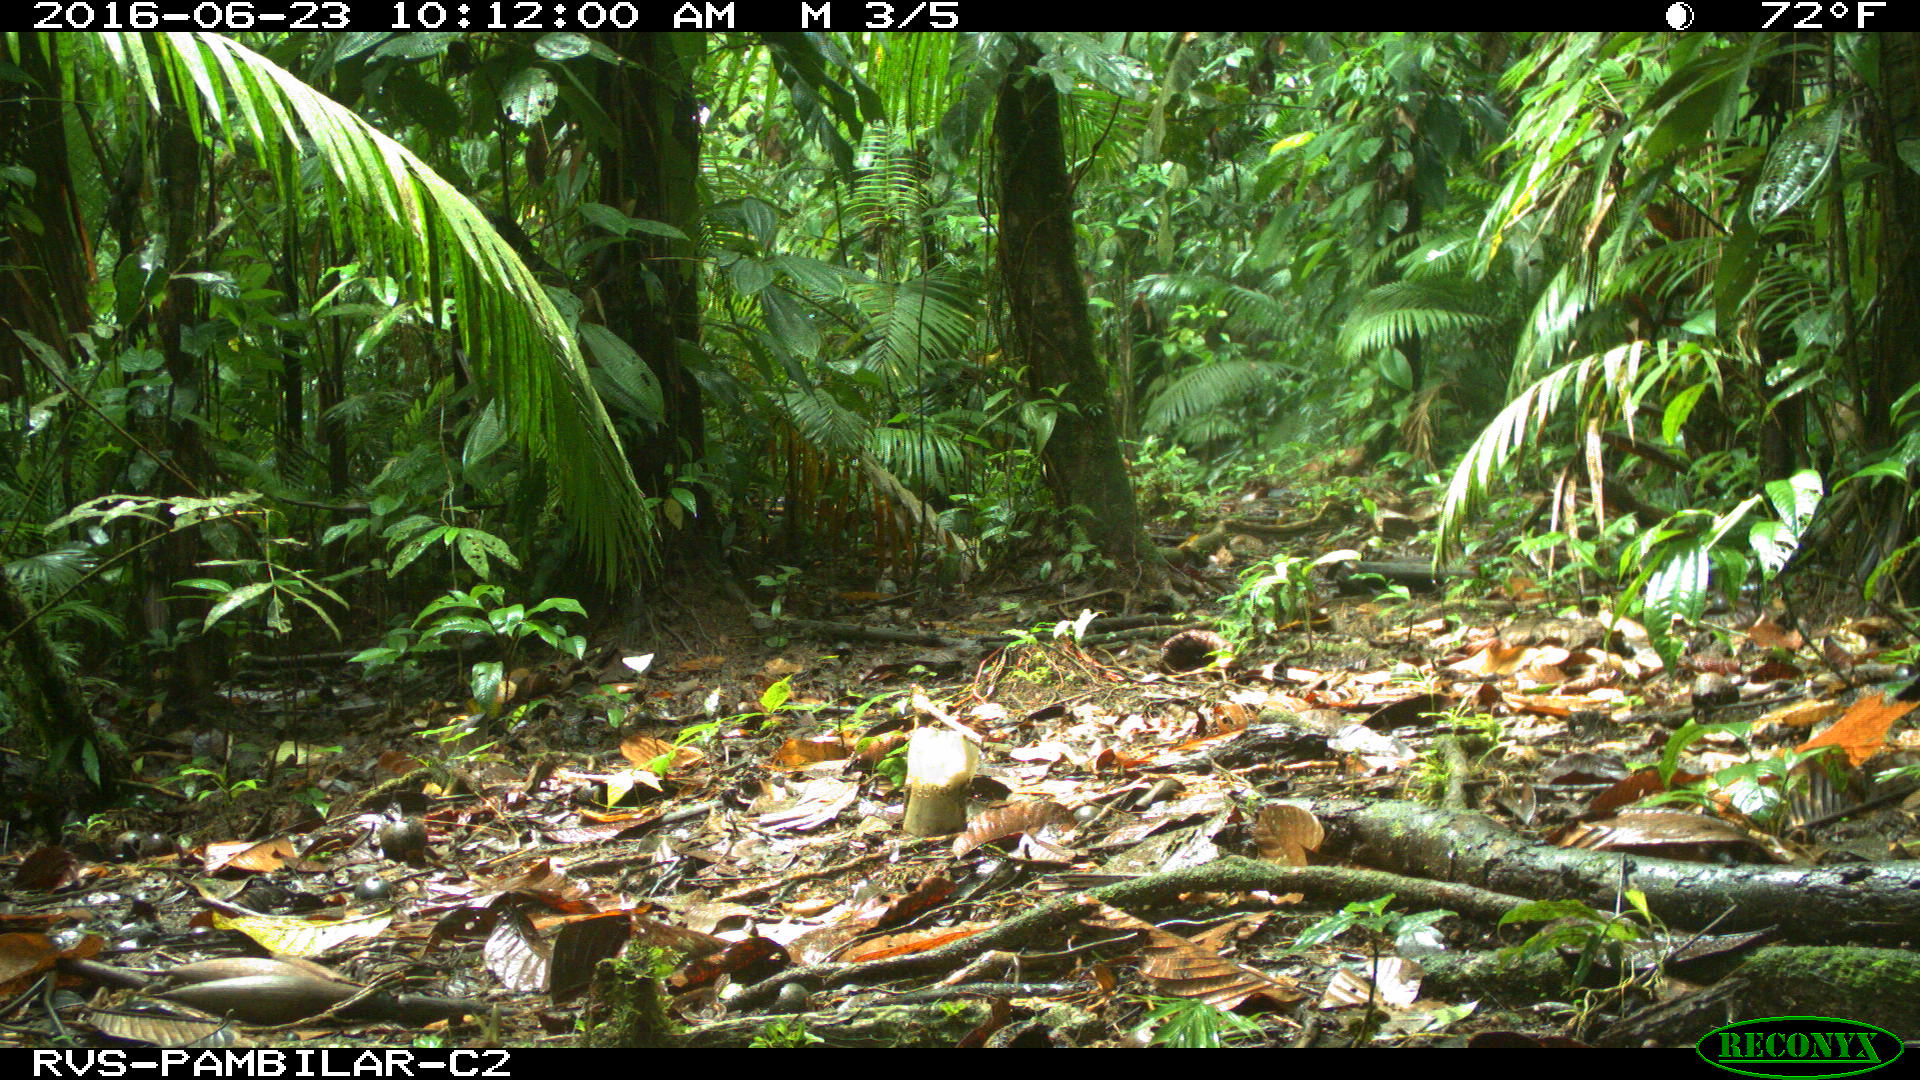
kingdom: Animalia
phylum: Chordata
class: Mammalia
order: Rodentia
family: Dasyproctidae
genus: Dasyprocta
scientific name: Dasyprocta punctata
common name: Central american agouti
